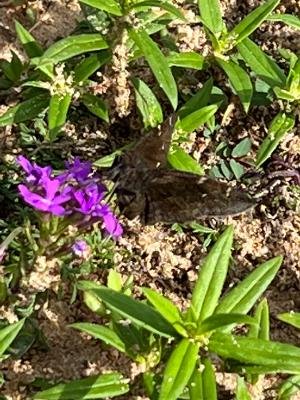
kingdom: Animalia
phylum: Arthropoda
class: Insecta
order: Lepidoptera
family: Hesperiidae
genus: Autochton
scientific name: Autochton
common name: Northern Cloudywing
